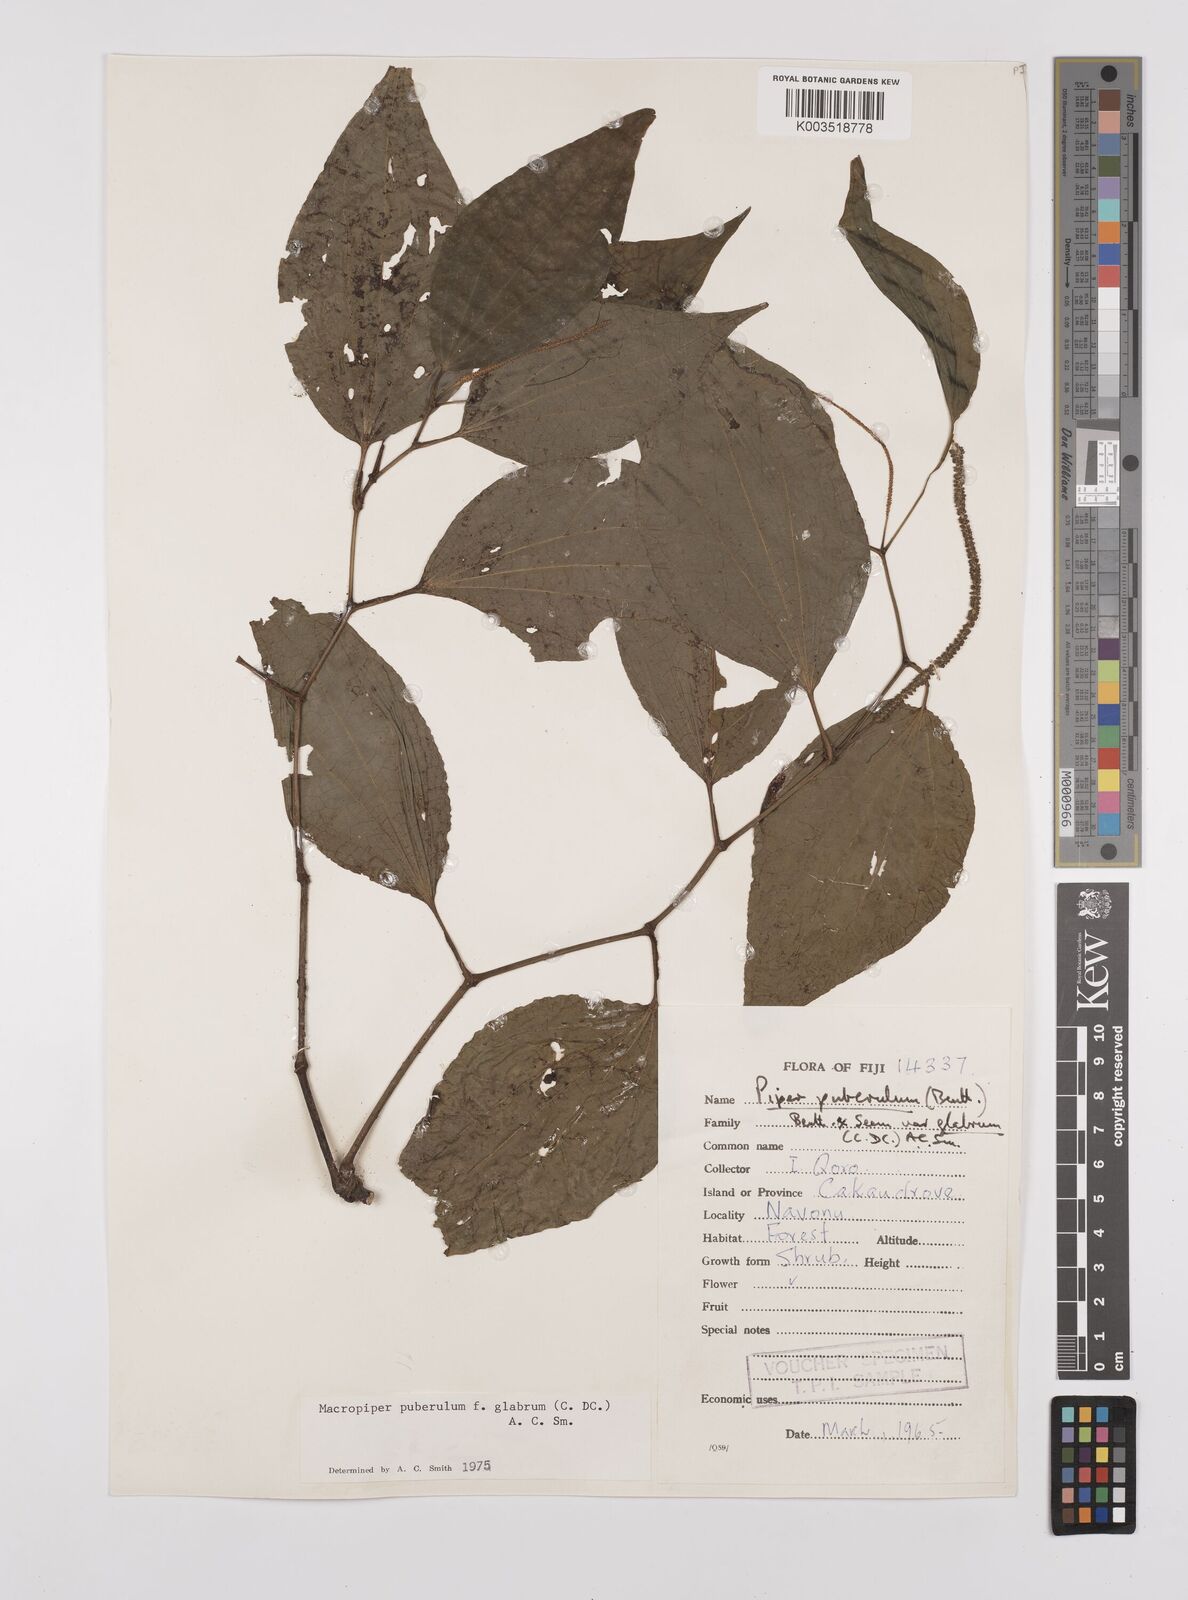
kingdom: Plantae
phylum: Tracheophyta
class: Magnoliopsida
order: Piperales
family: Piperaceae
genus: Macropiper
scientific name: Macropiper puberulum
